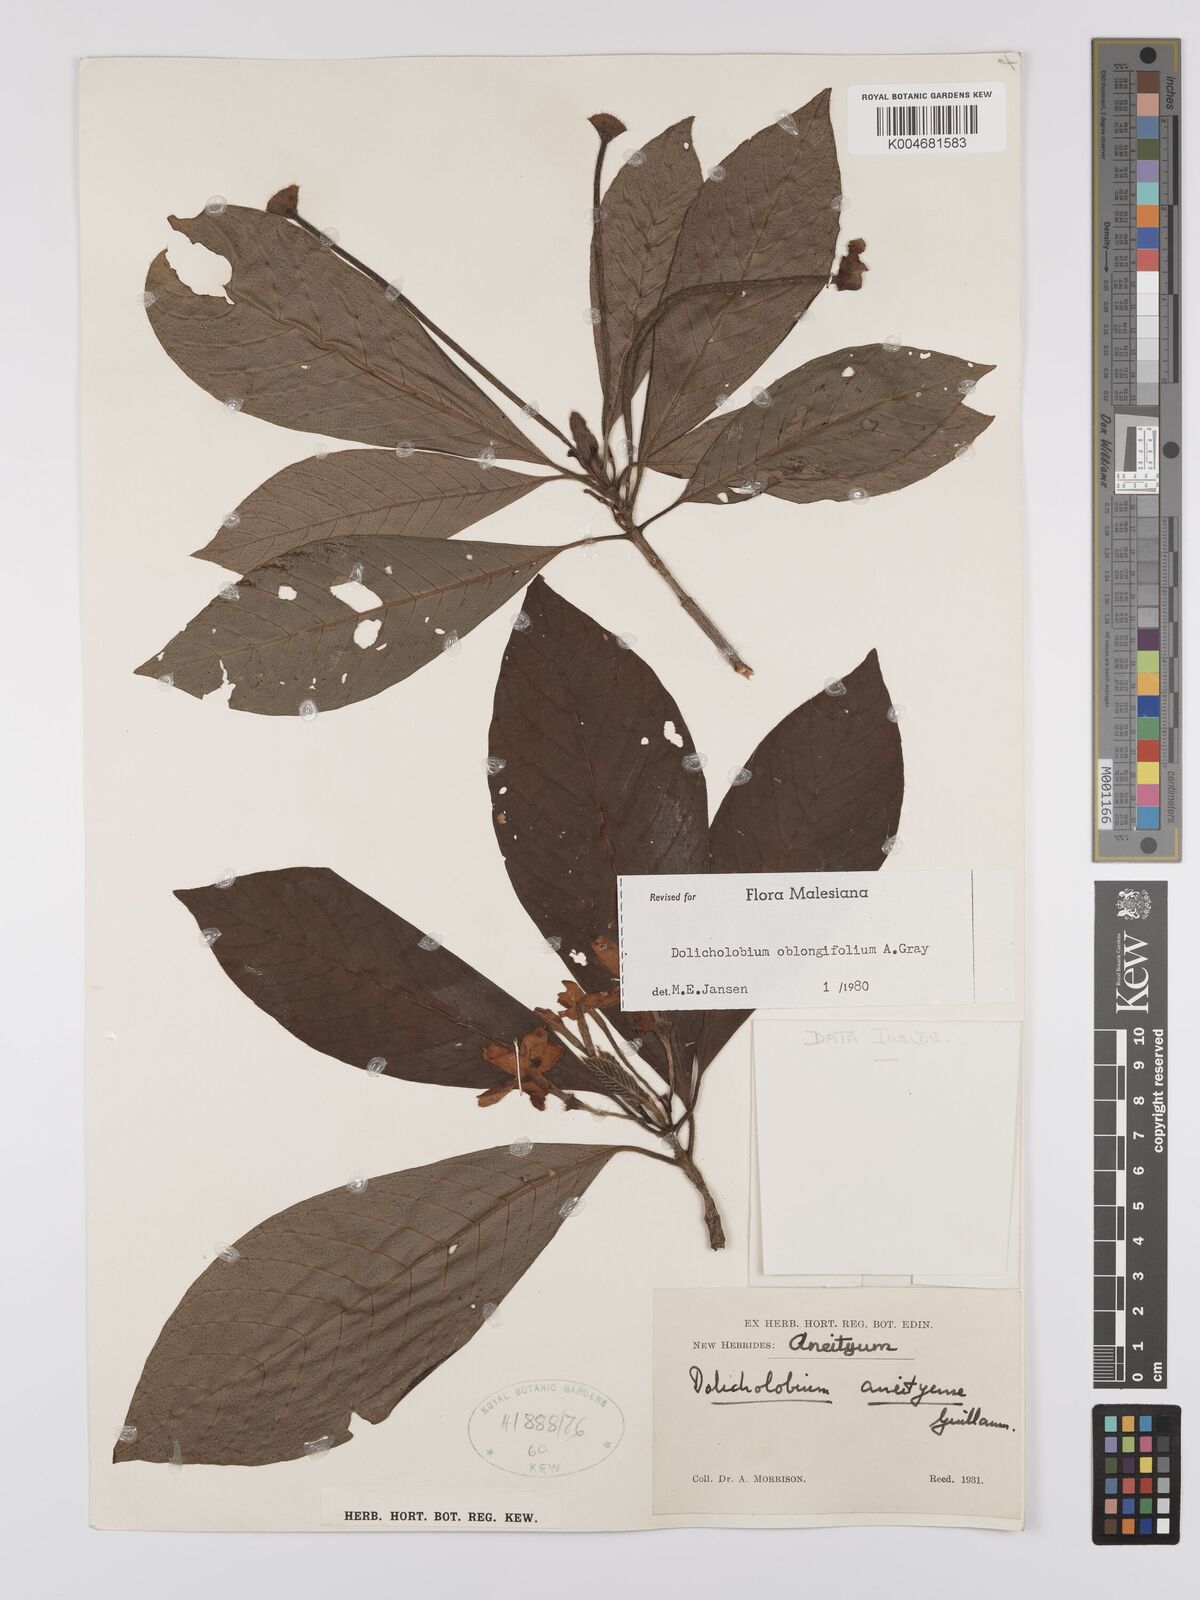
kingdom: Plantae
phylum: Tracheophyta
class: Magnoliopsida
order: Gentianales
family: Rubiaceae
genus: Dolicholobium
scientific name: Dolicholobium oblongifolium
